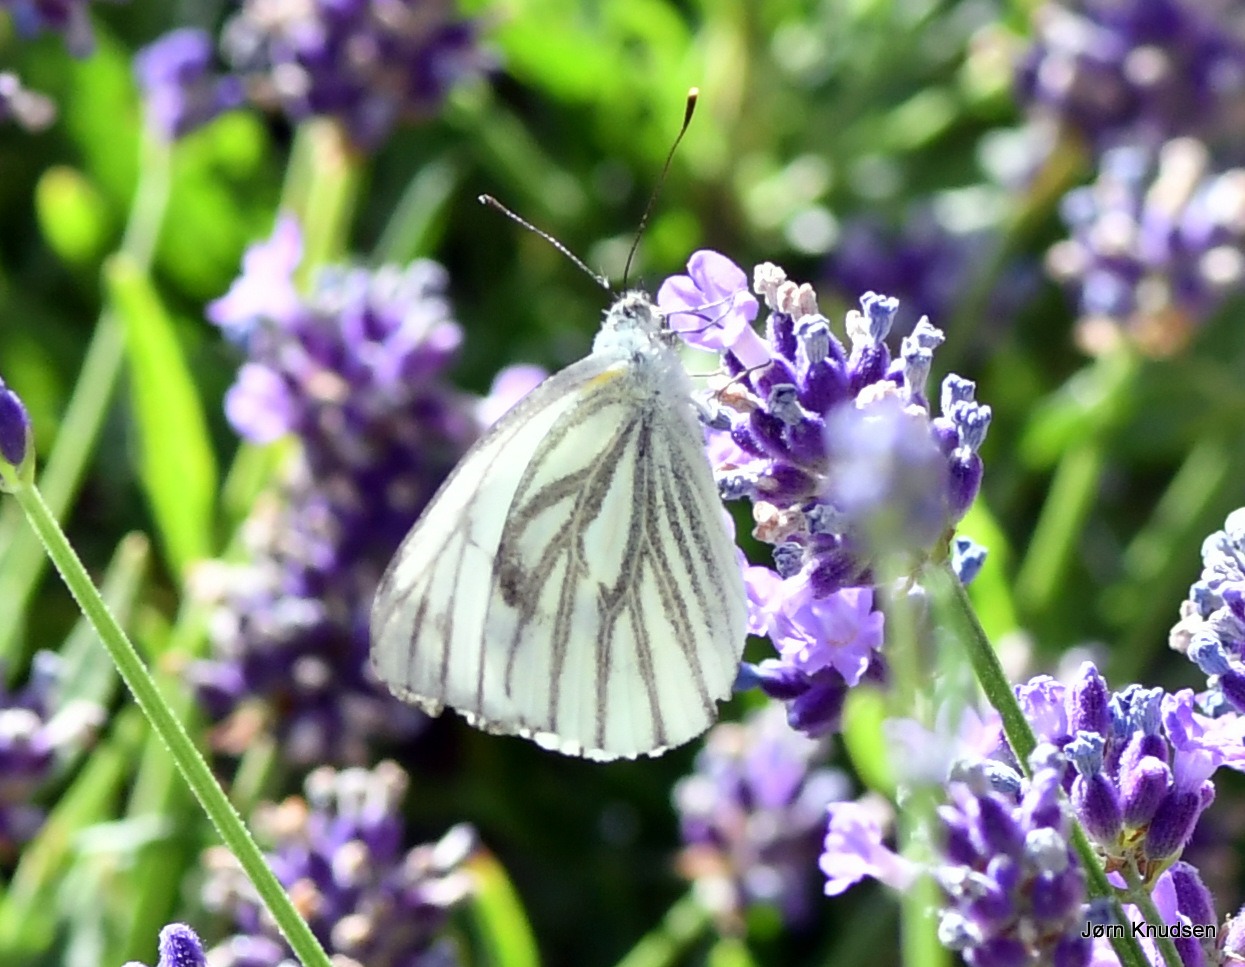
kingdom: Animalia
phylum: Arthropoda
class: Insecta
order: Lepidoptera
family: Pieridae
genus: Pieris
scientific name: Pieris napi
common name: Grønåret kålsommerfugl
